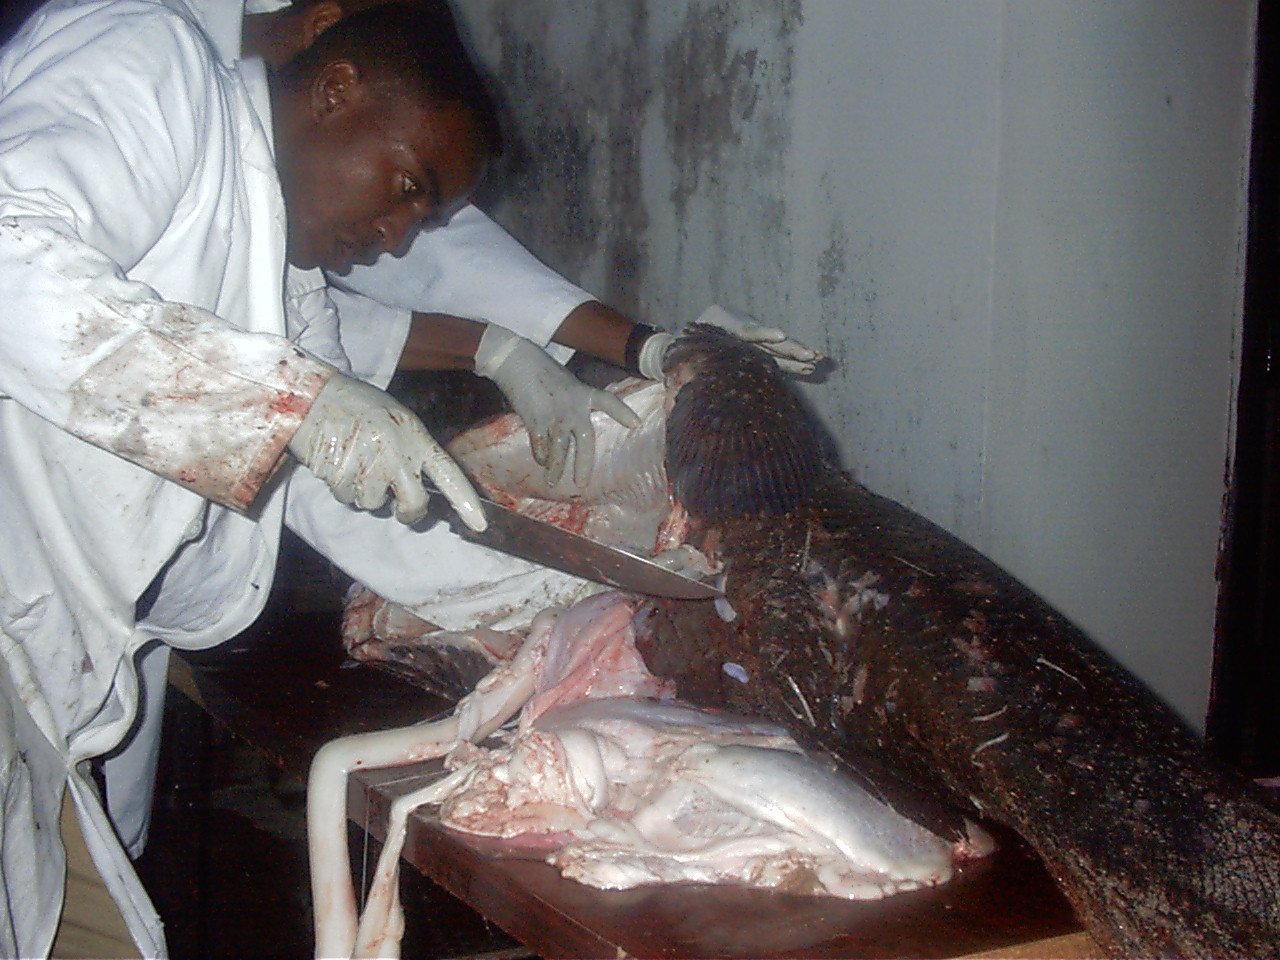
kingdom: Animalia
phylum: Chordata
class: Coelacanthi
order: Coelacanthiformes
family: Latimeriidae
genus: Latimeria
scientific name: Latimeria chalumnae
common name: Coelacanth
